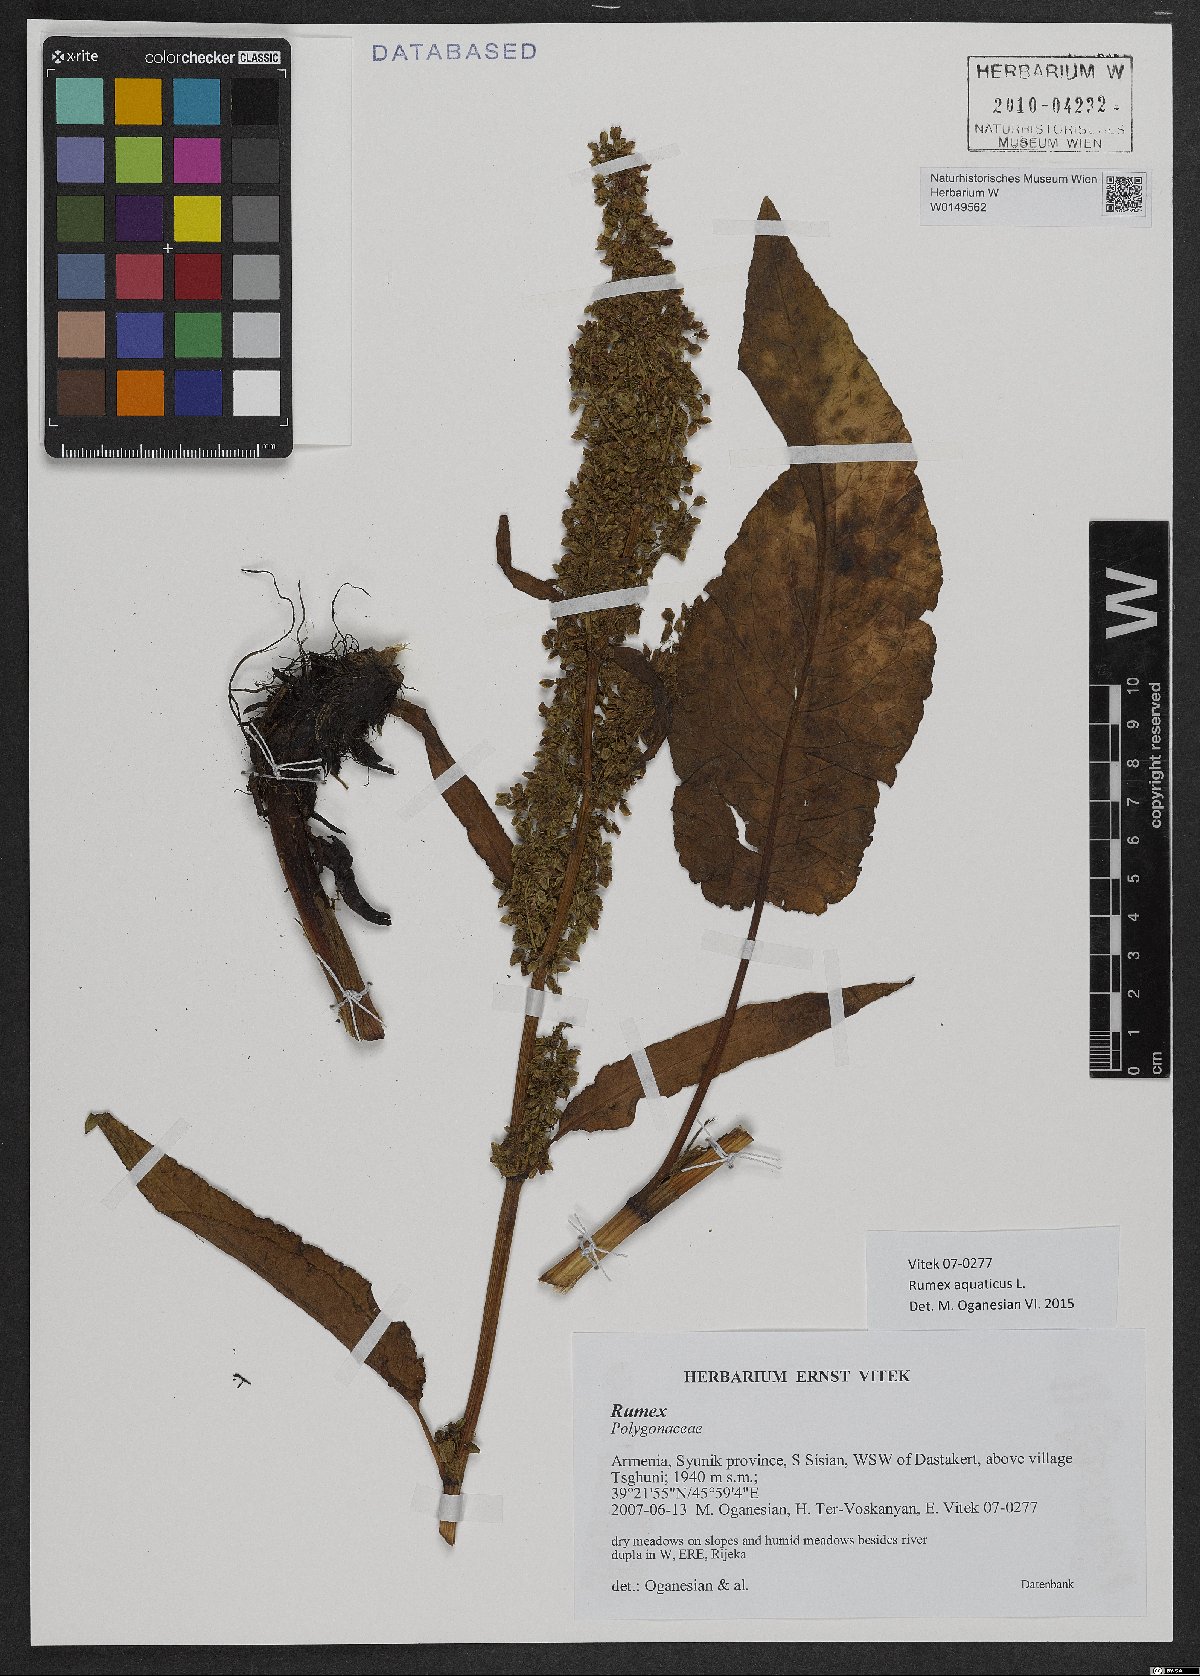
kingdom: Plantae
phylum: Tracheophyta
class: Magnoliopsida
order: Caryophyllales
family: Polygonaceae
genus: Rumex
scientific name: Rumex aquaticus
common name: Scottish dock
